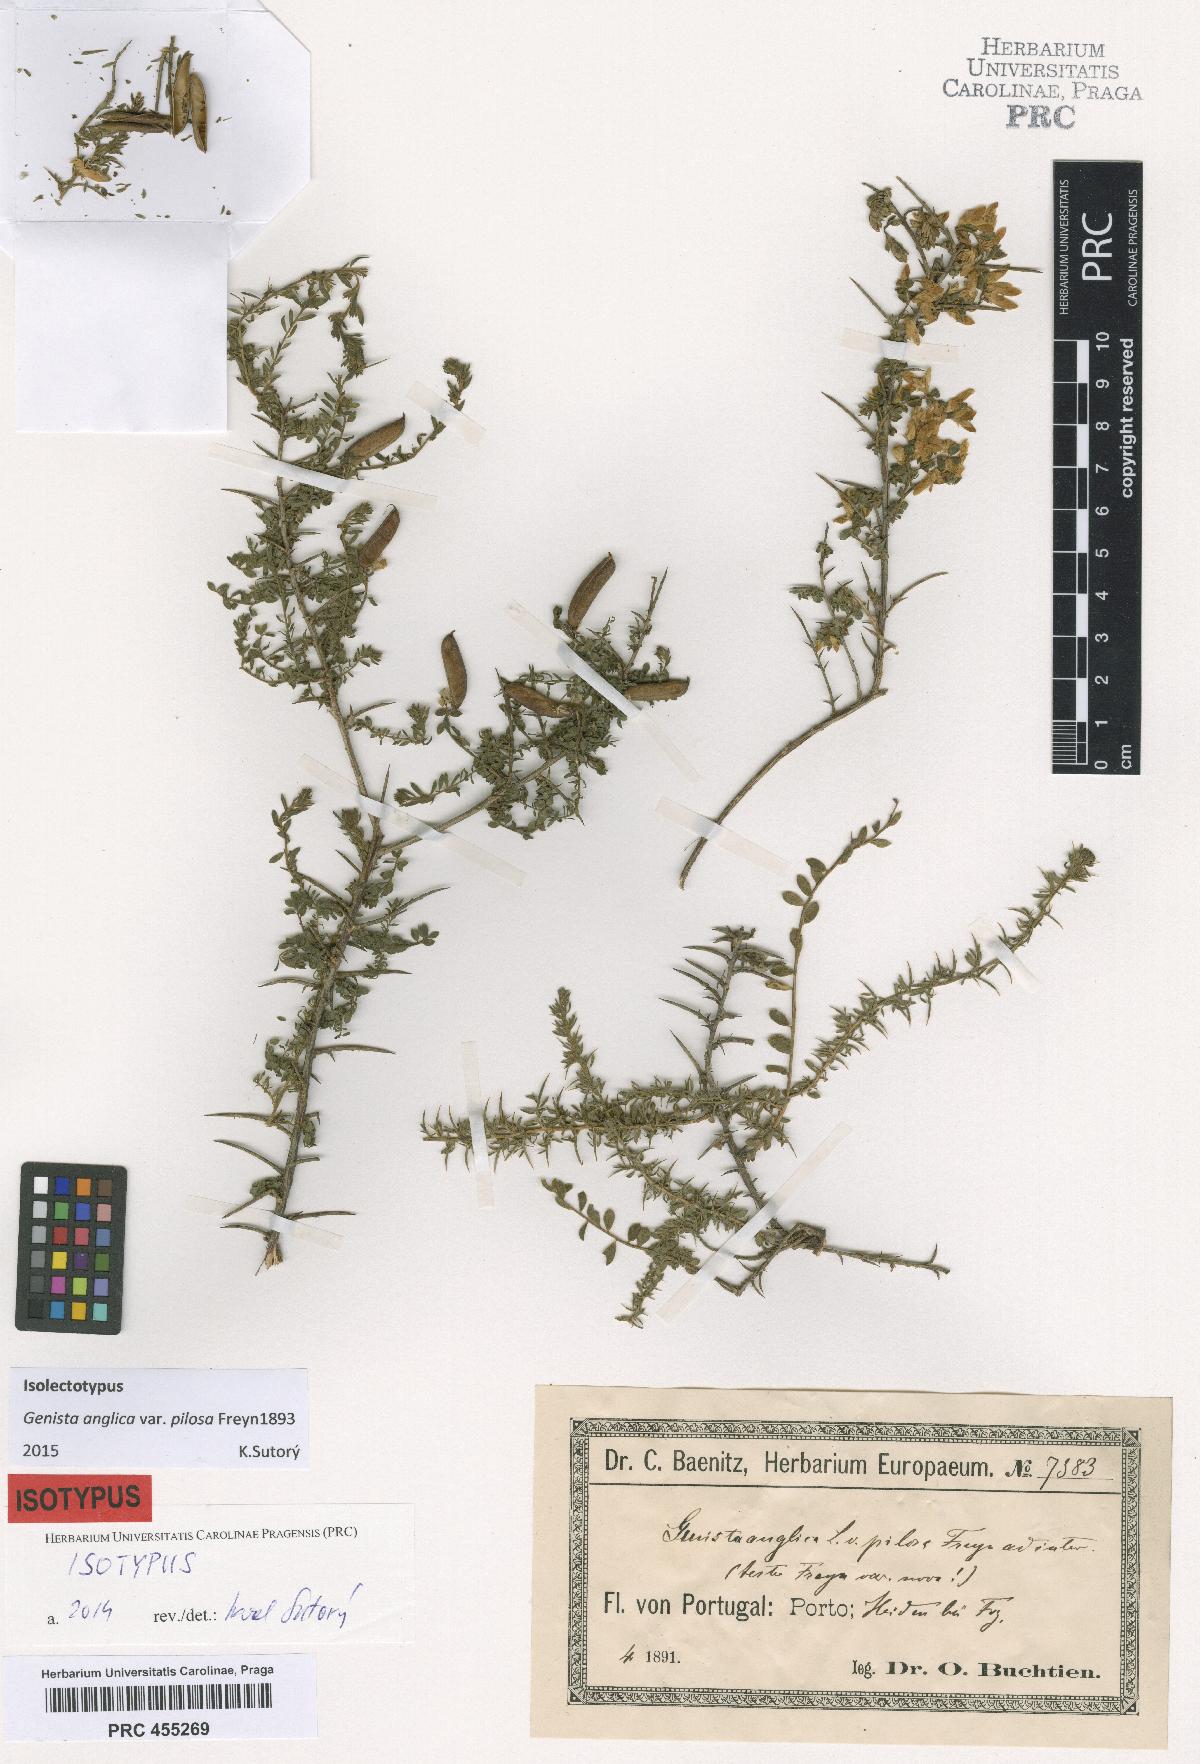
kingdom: Plantae
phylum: Tracheophyta
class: Magnoliopsida
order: Fabales
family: Fabaceae
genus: Genista
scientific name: Genista berberidea
